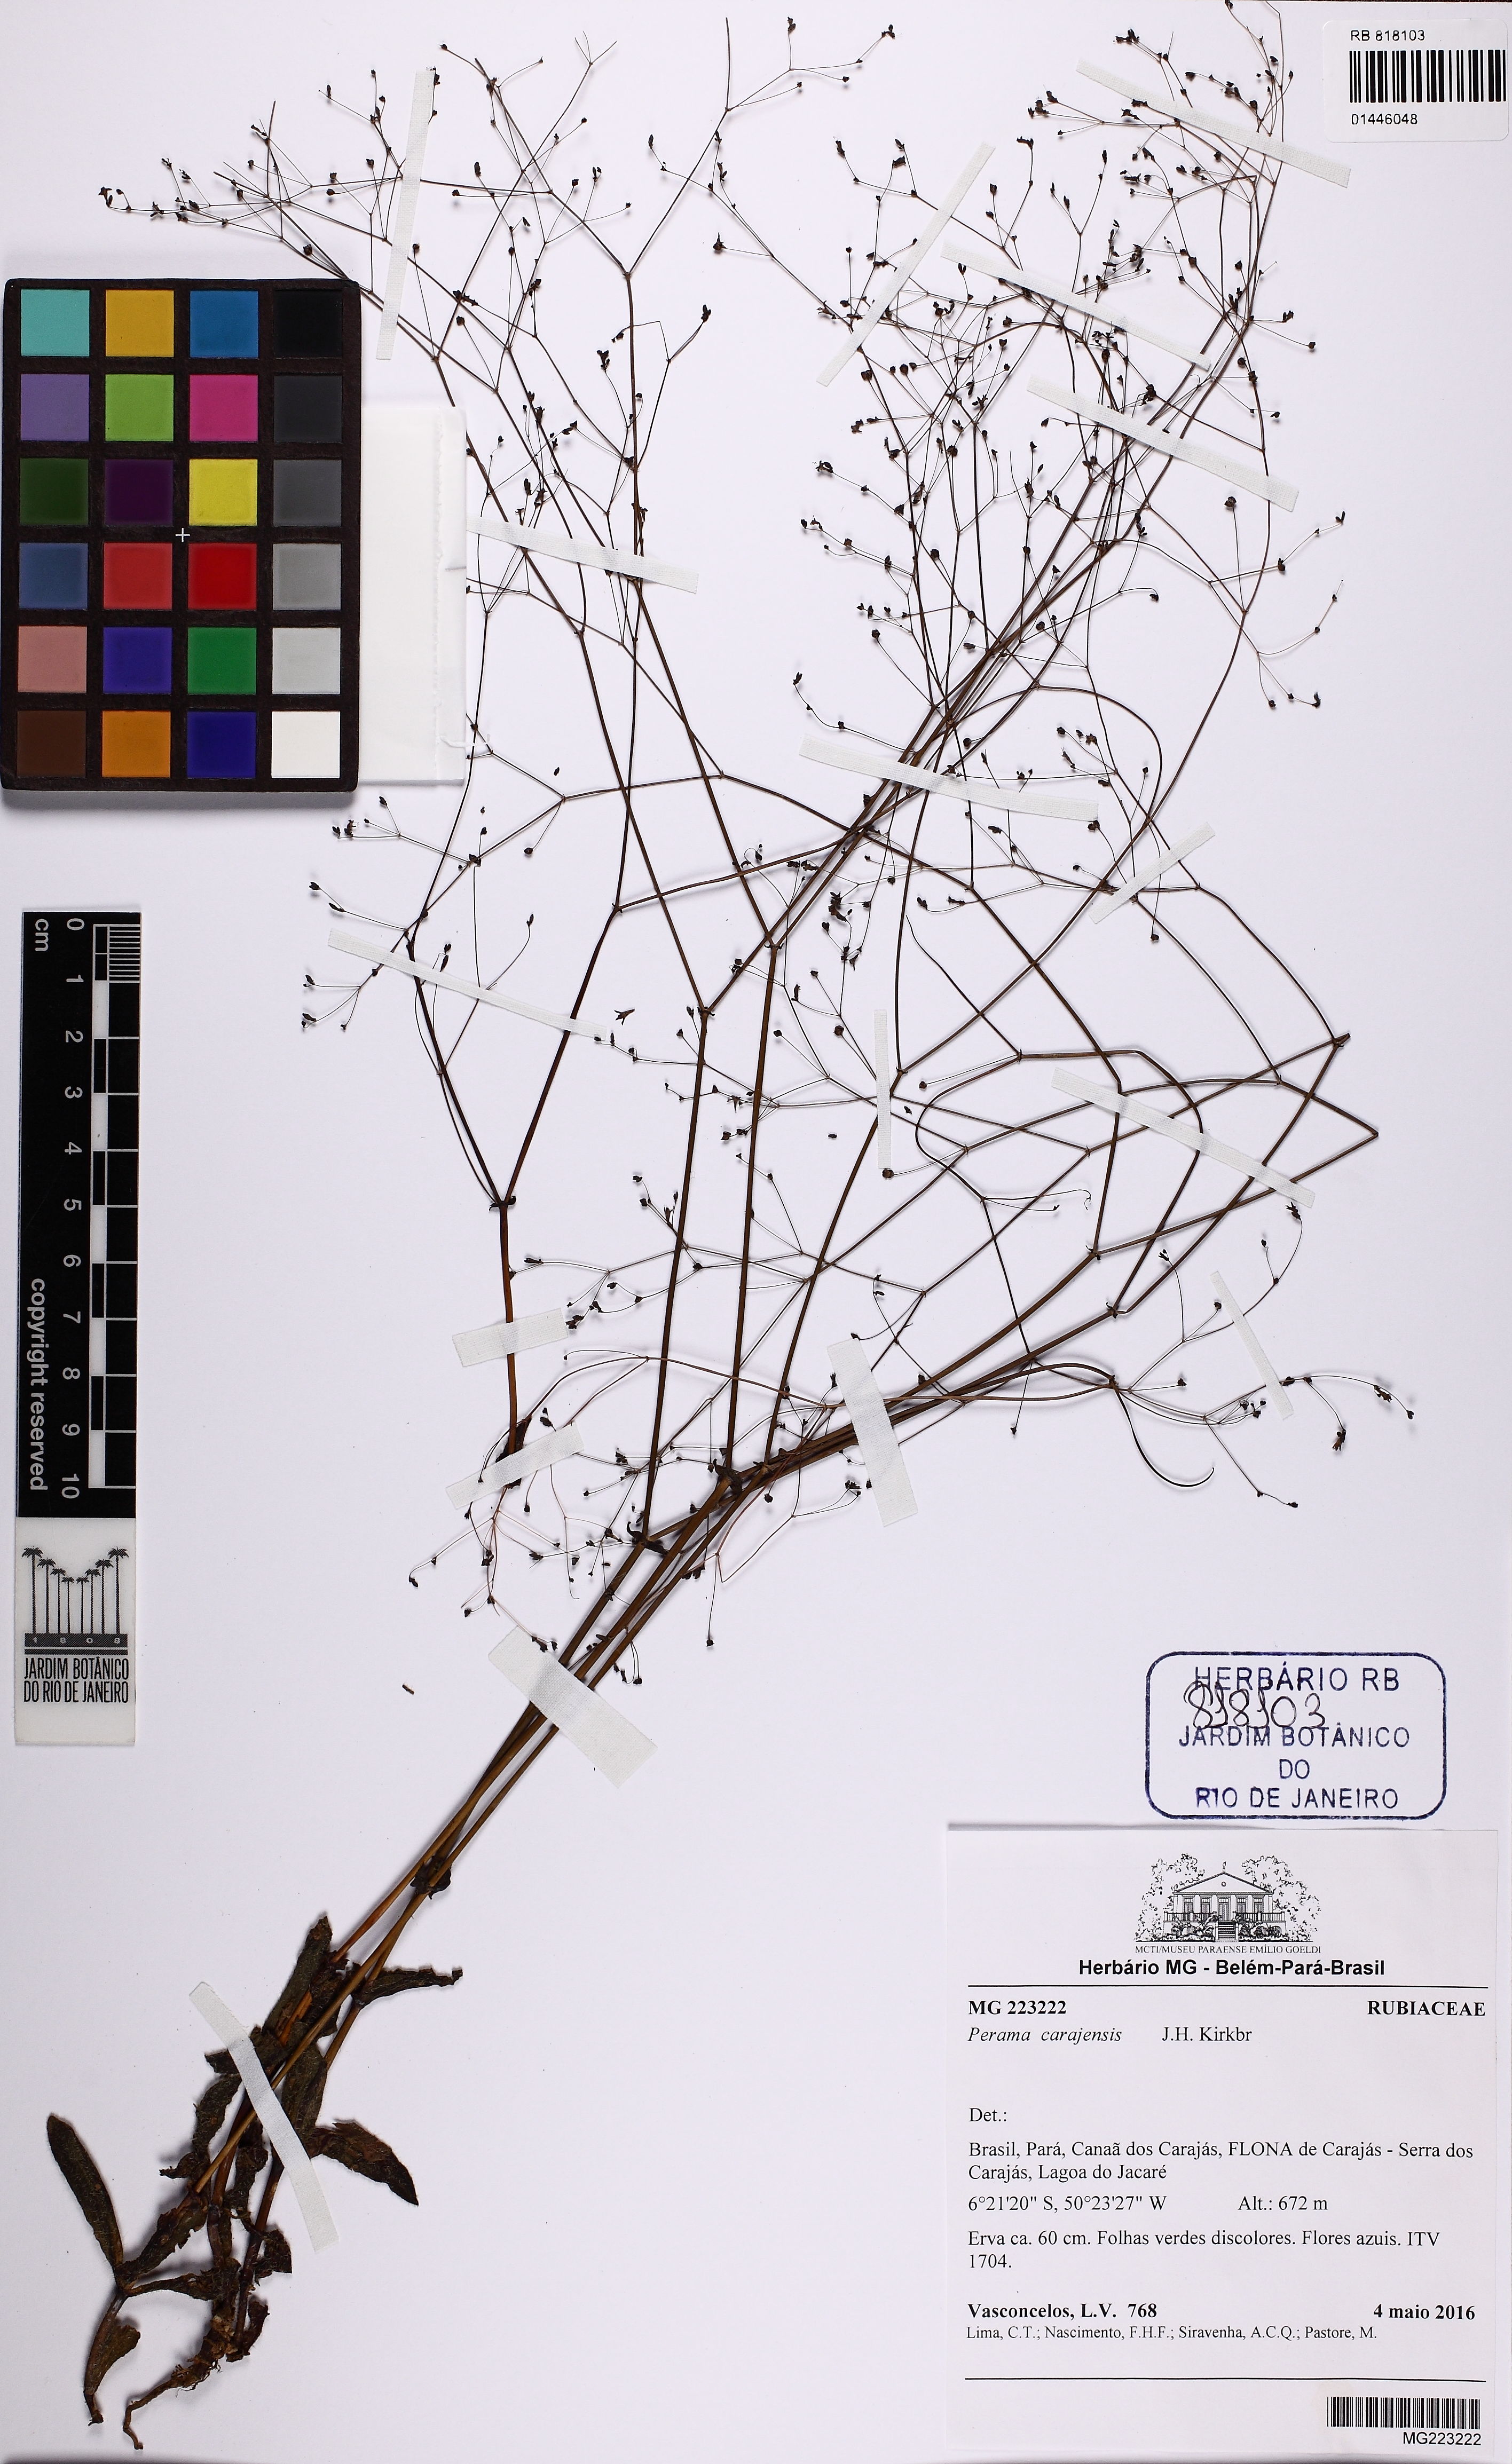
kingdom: Plantae
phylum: Tracheophyta
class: Magnoliopsida
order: Gentianales
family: Rubiaceae
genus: Perama
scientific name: Perama carajensis
